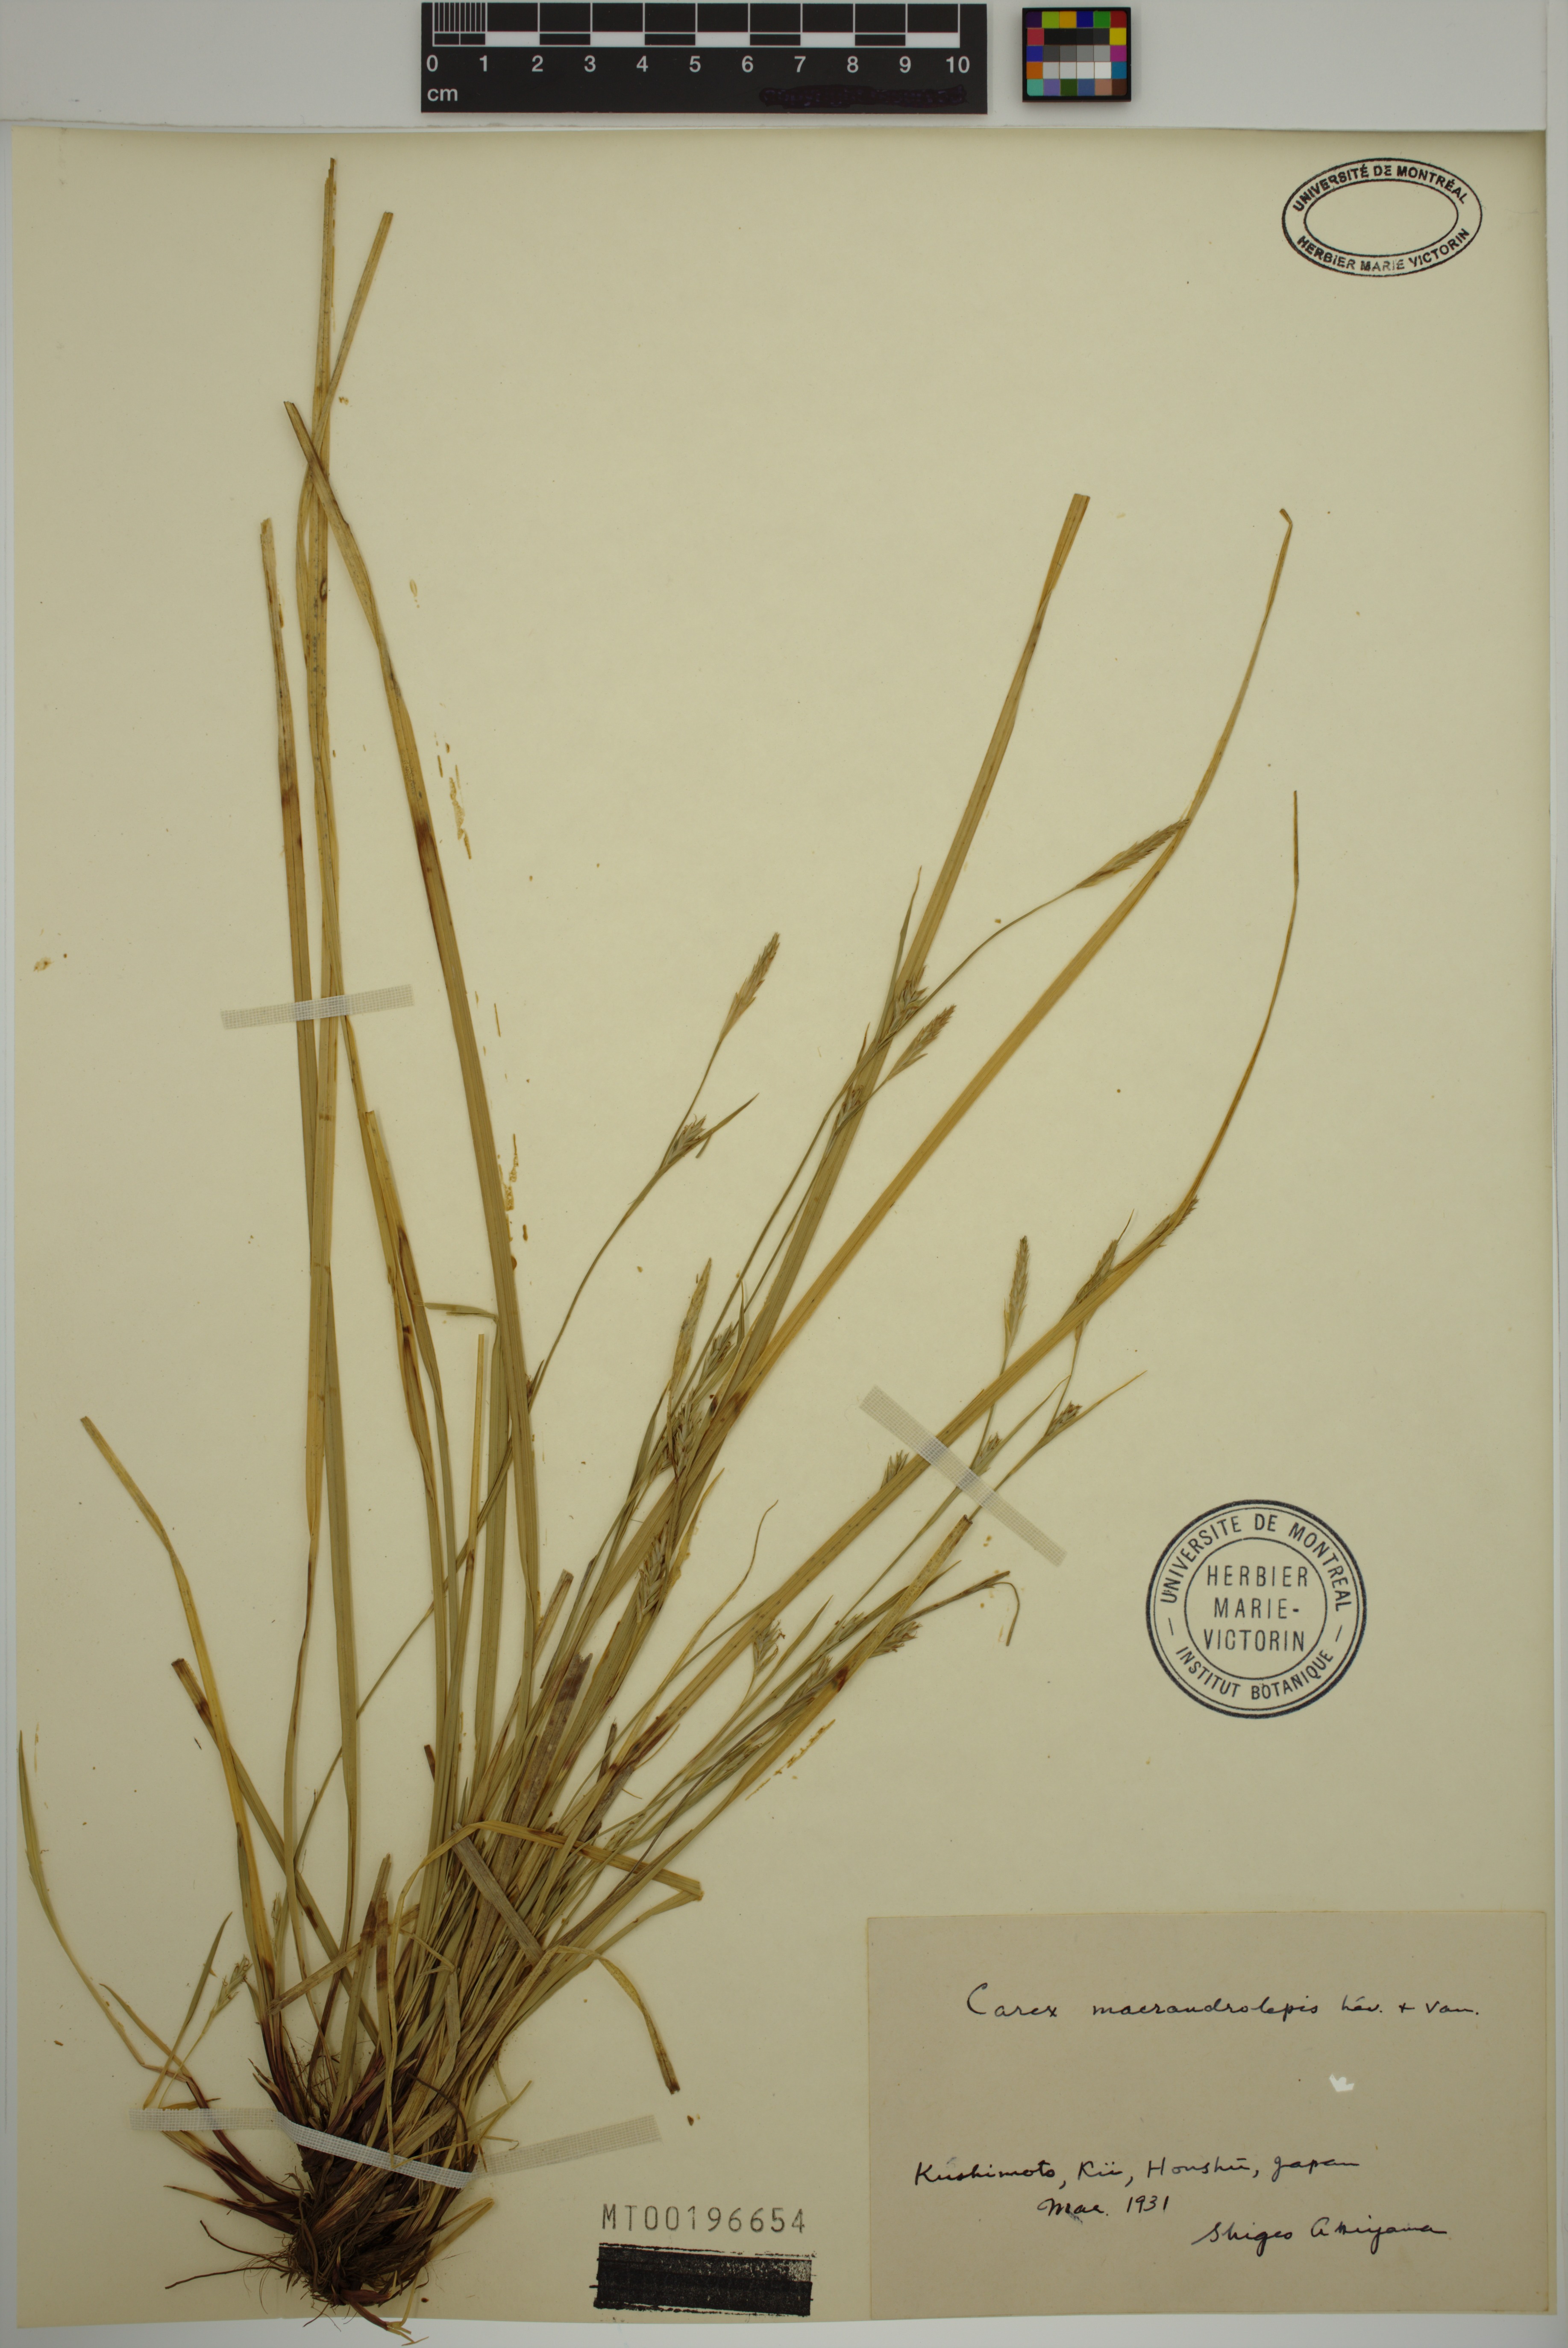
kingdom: Plantae
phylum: Tracheophyta
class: Liliopsida
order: Poales
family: Cyperaceae
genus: Carex
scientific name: Carex oxyphylla
